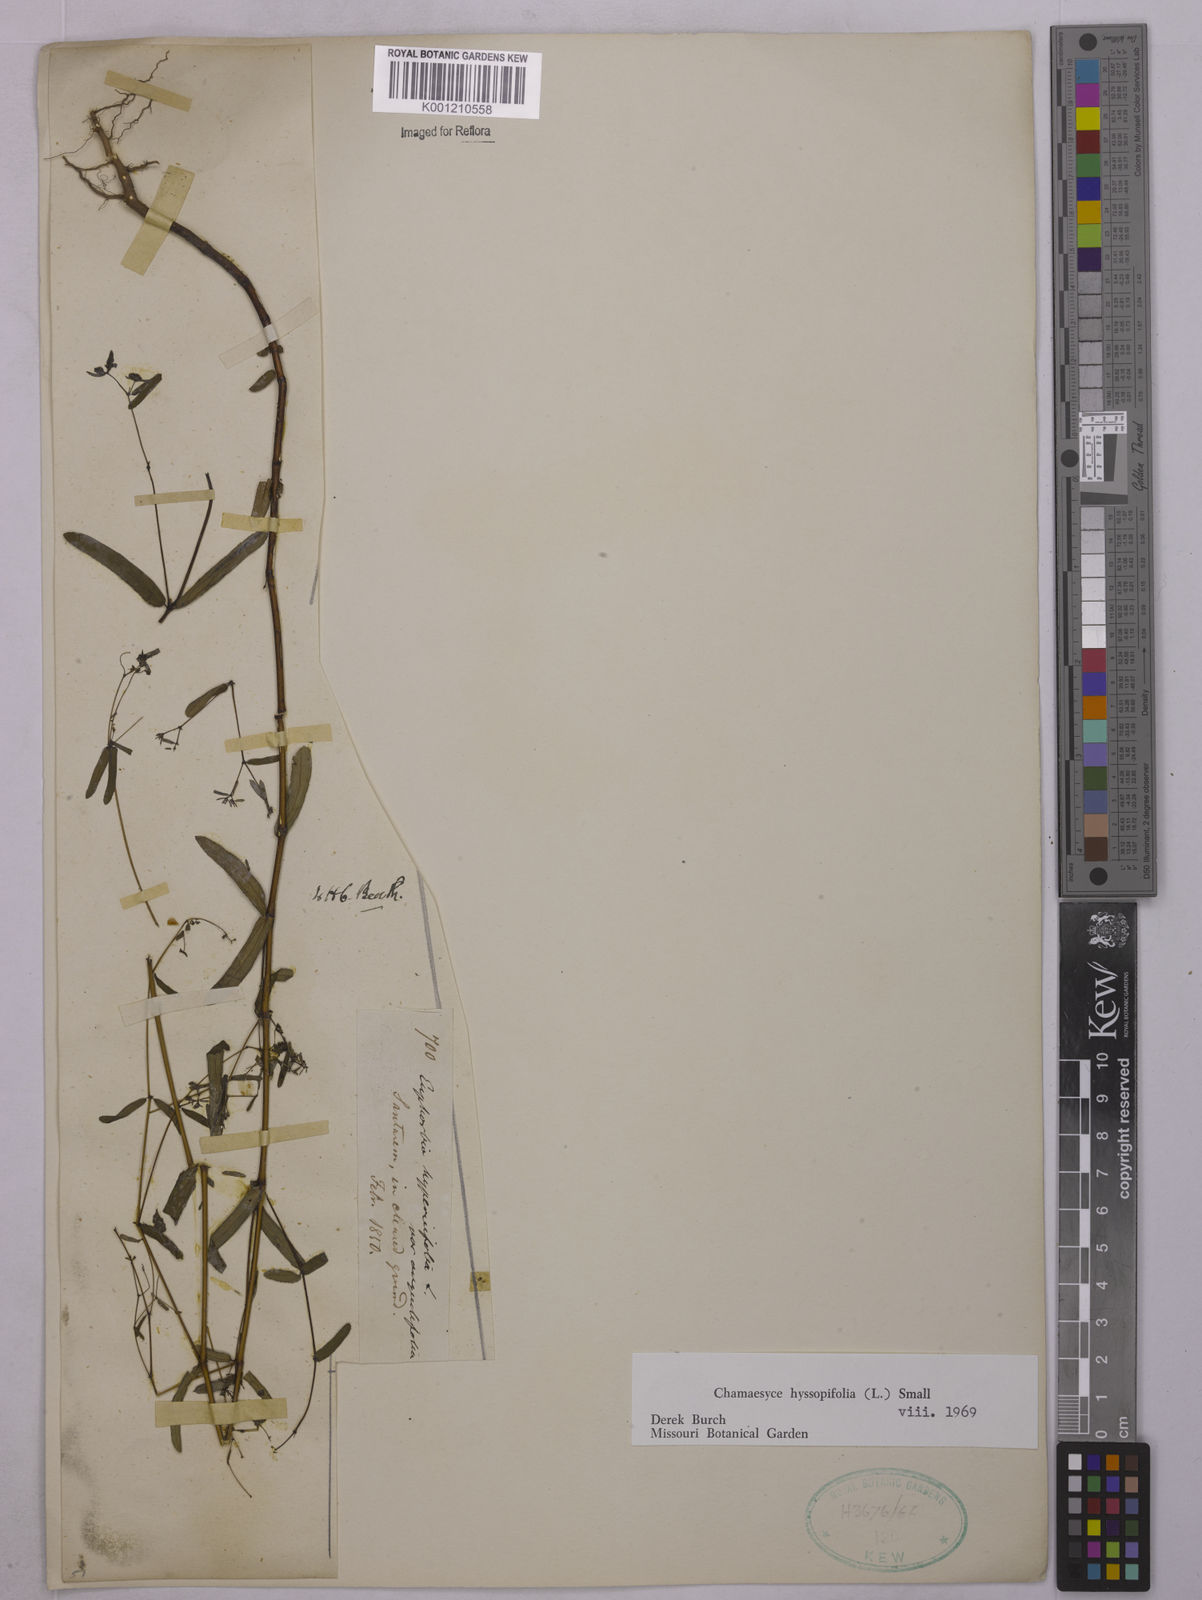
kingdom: Plantae
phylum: Tracheophyta
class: Magnoliopsida
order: Malpighiales
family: Euphorbiaceae
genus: Euphorbia
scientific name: Euphorbia hyssopifolia
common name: Hyssopleaf sandmat
